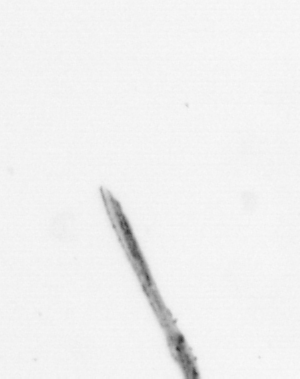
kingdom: Chromista
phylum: Ochrophyta
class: Bacillariophyceae
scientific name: Bacillariophyceae
